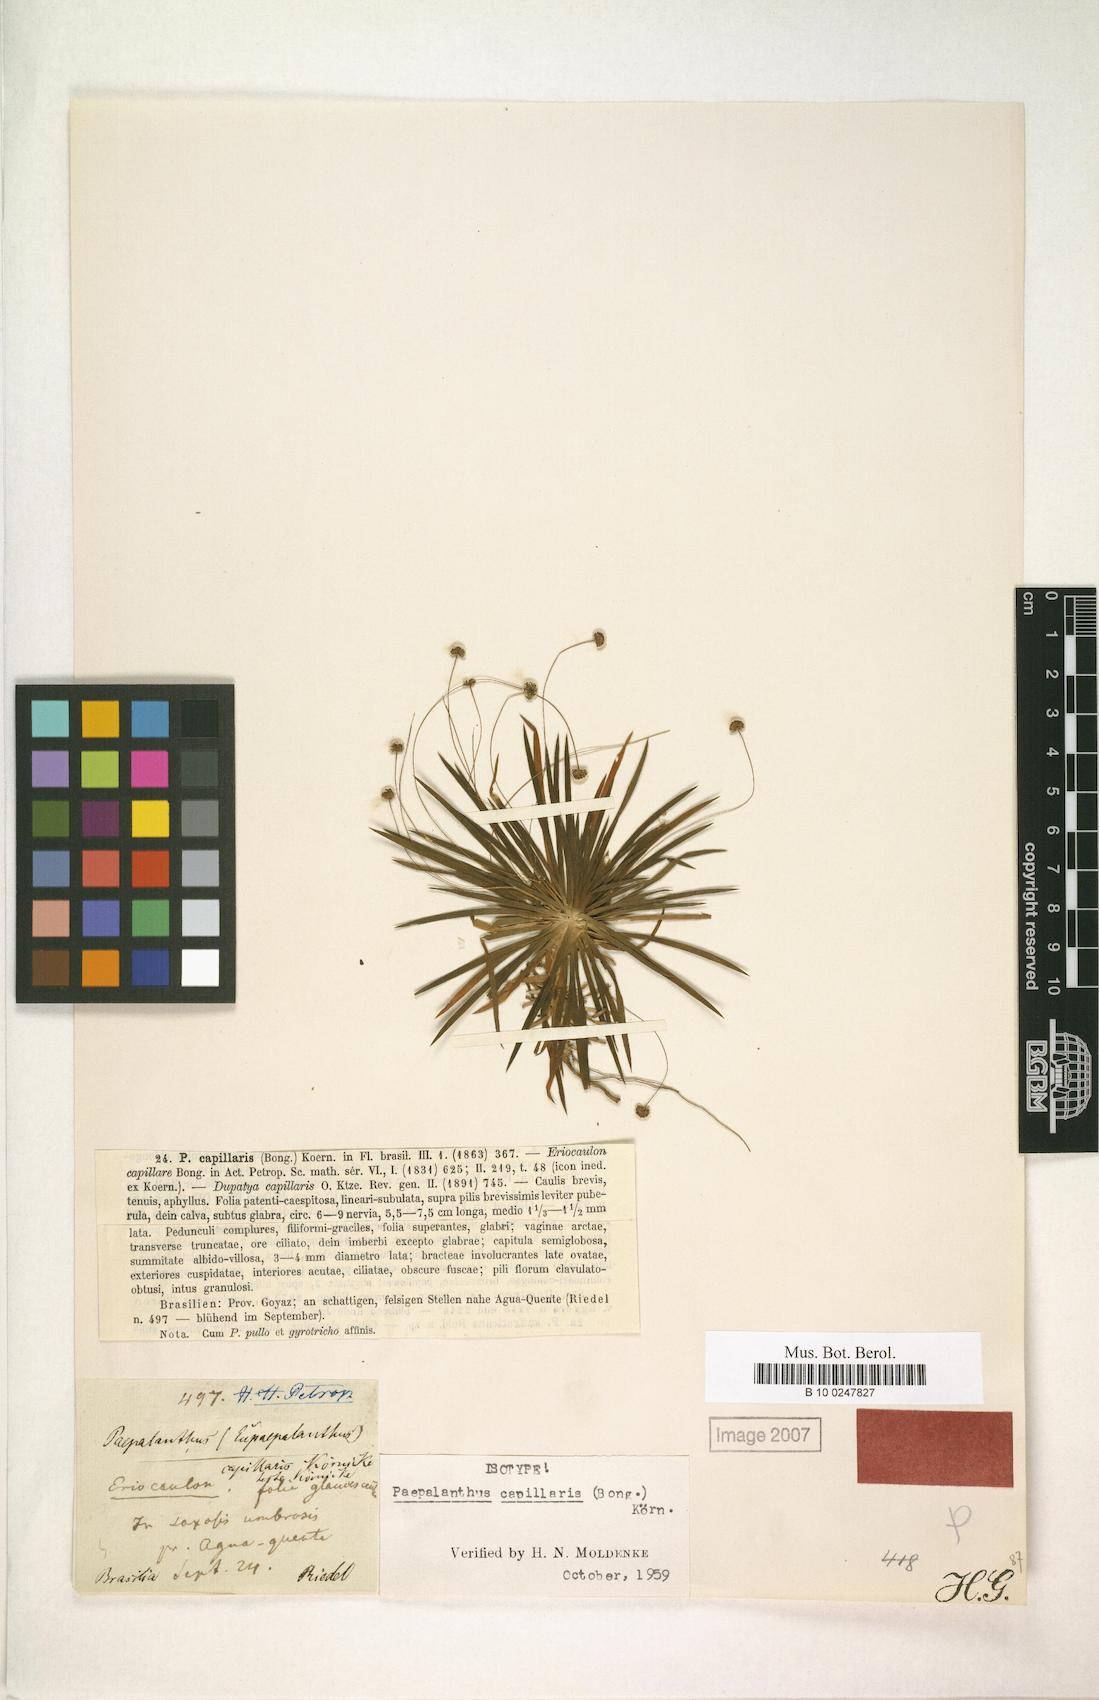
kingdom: Plantae
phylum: Tracheophyta
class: Liliopsida
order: Poales
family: Eriocaulaceae
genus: Paepalanthus
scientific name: Paepalanthus capillaris
